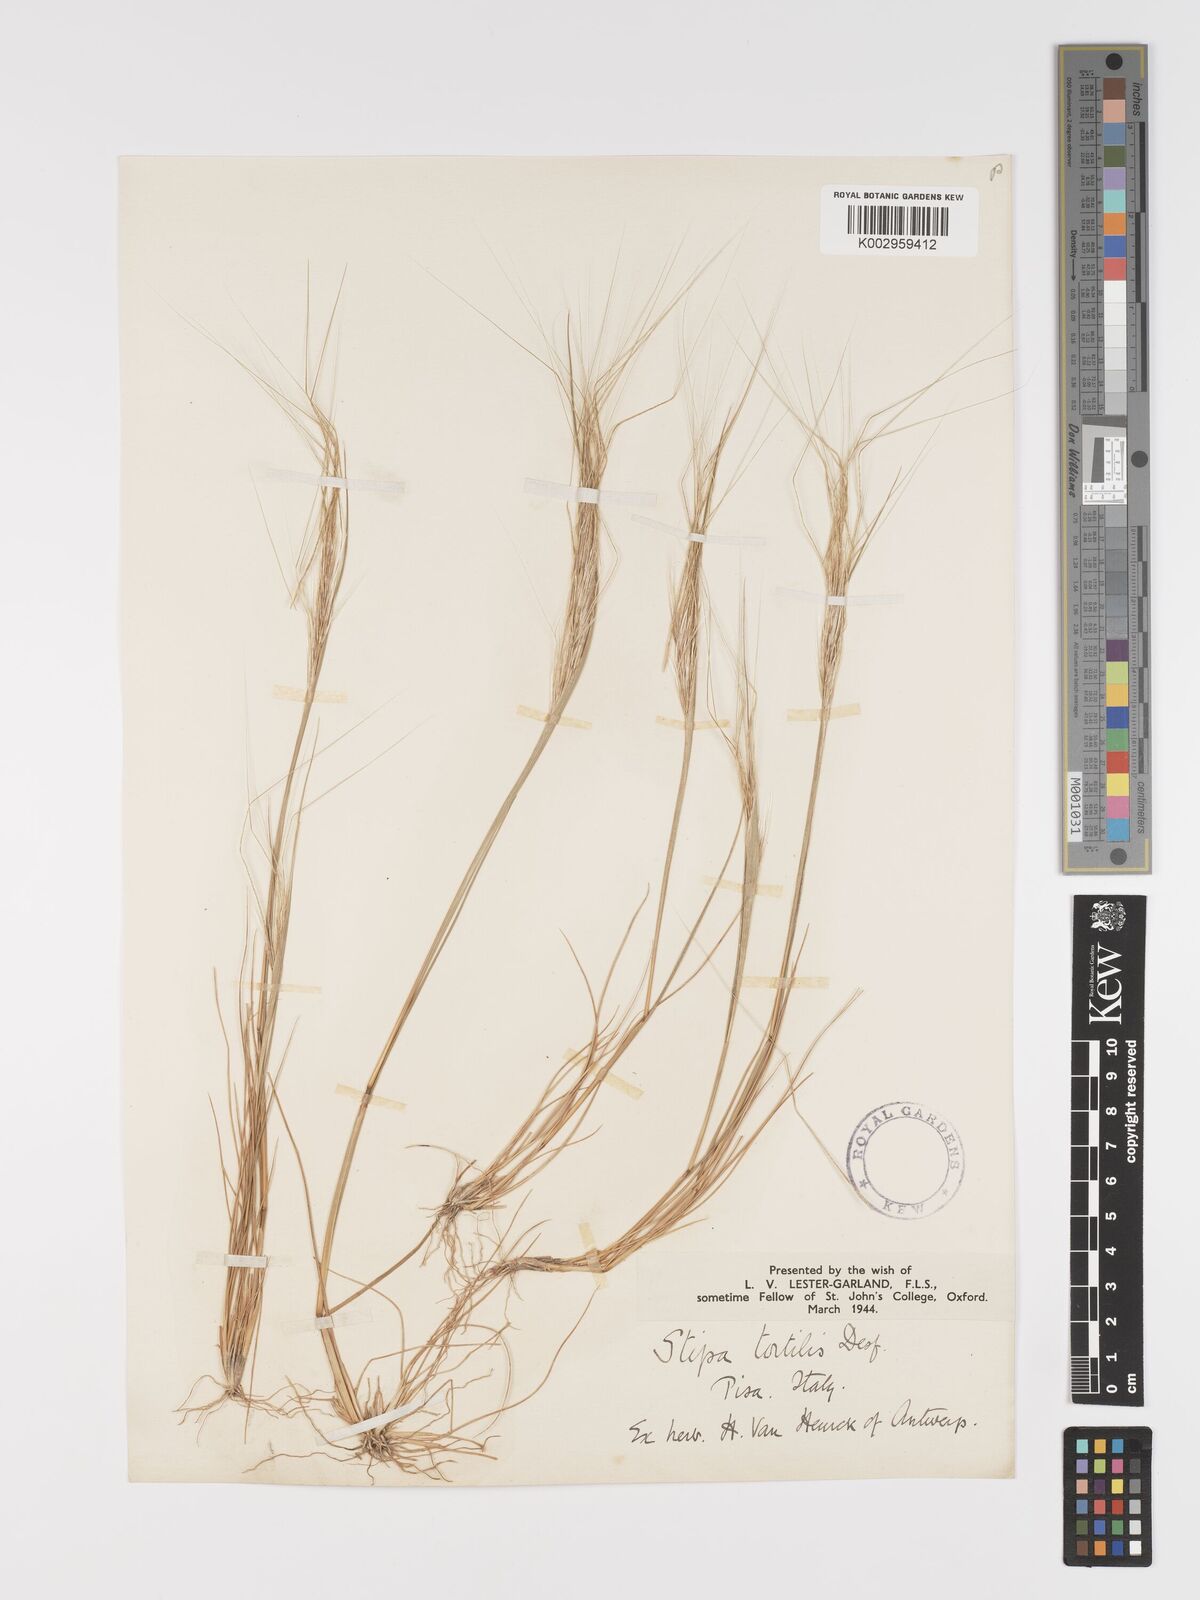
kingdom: Plantae
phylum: Tracheophyta
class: Liliopsida
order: Poales
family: Poaceae
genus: Stipa
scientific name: Stipa
